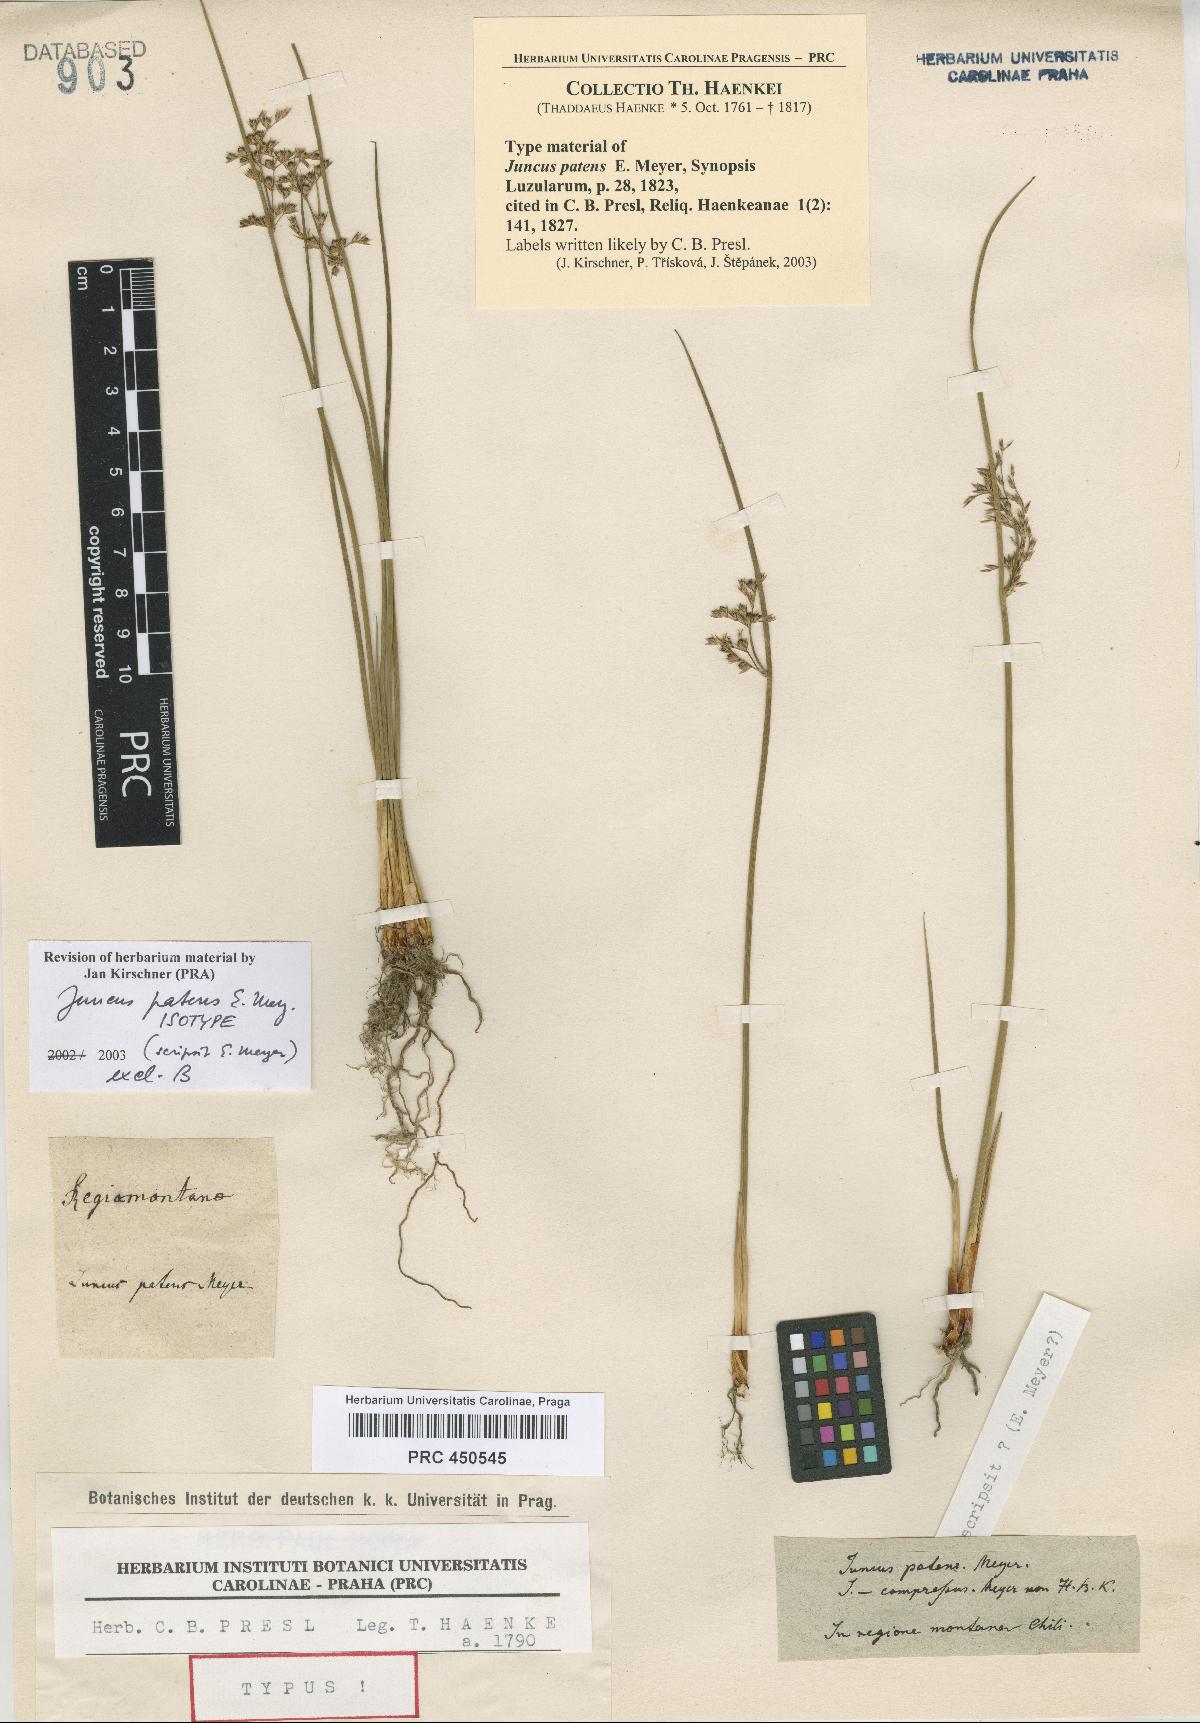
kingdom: Plantae
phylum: Tracheophyta
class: Liliopsida
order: Poales
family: Juncaceae
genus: Juncus
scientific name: Juncus patens
